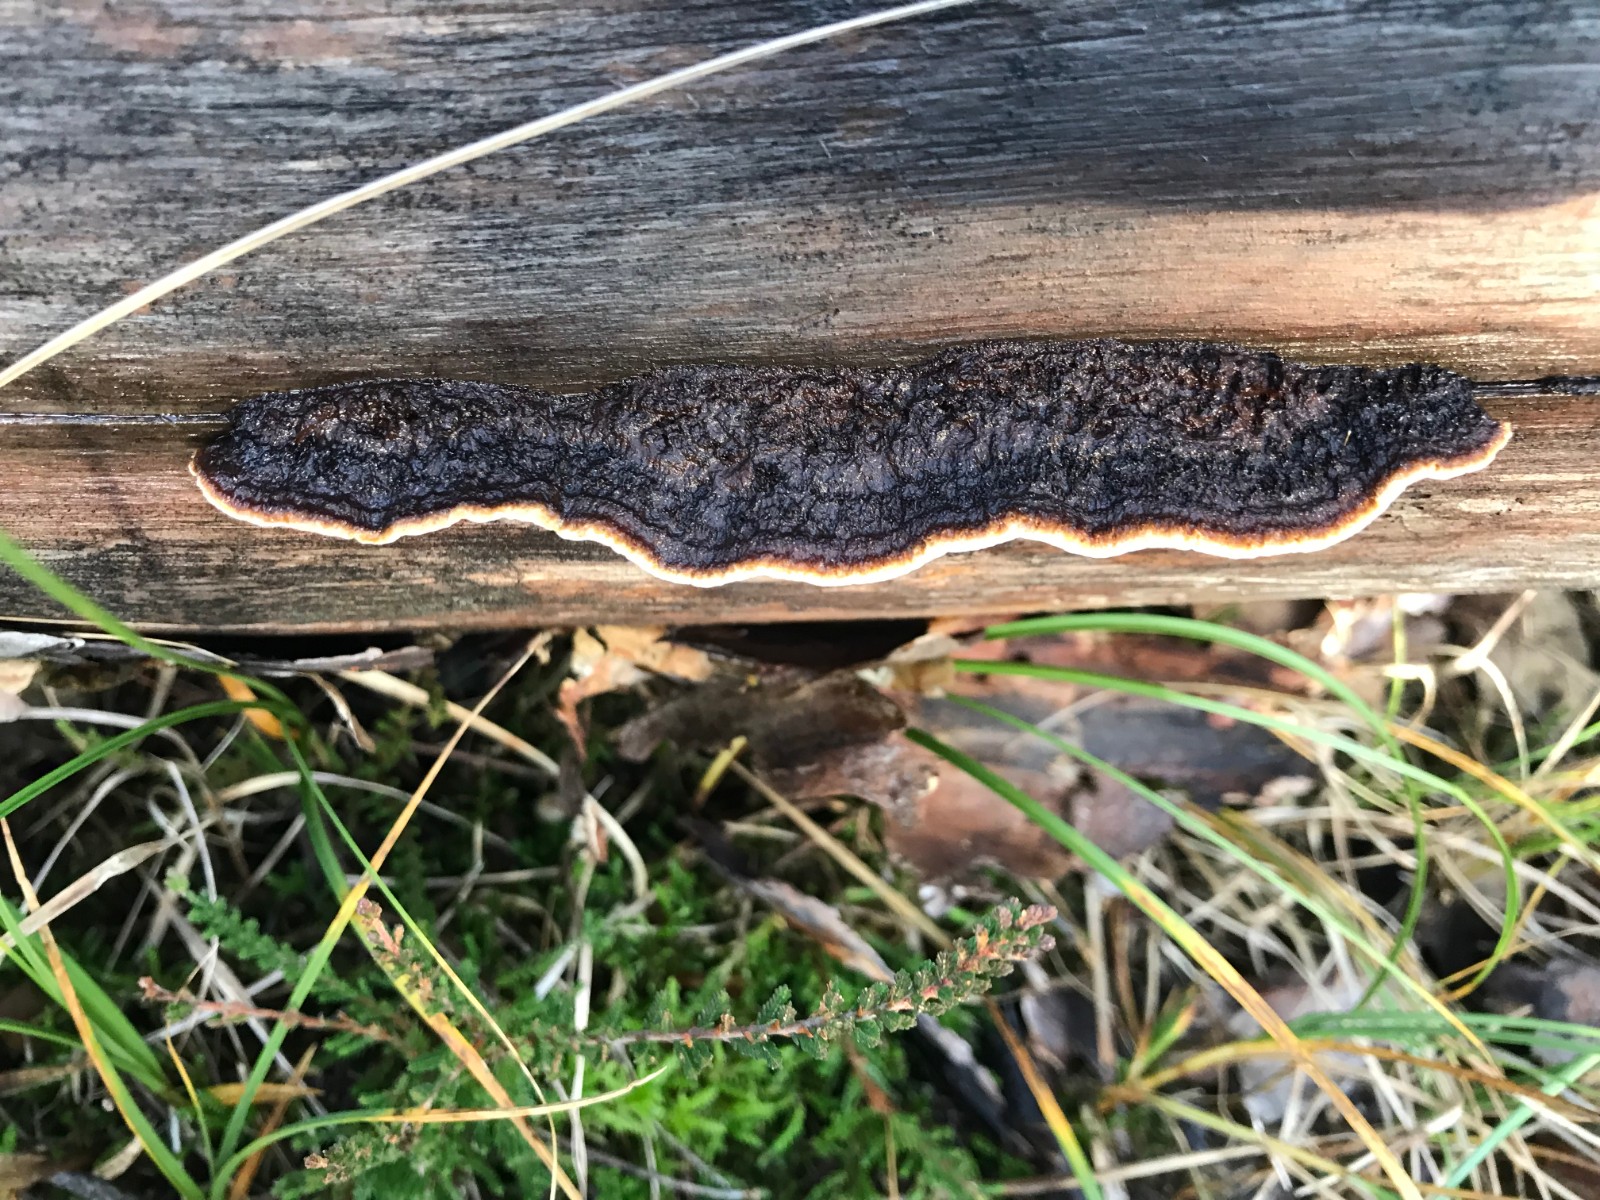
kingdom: Fungi
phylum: Basidiomycota
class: Agaricomycetes
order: Gloeophyllales
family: Gloeophyllaceae
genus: Gloeophyllum
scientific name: Gloeophyllum sepiarium
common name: fyrre-korkhat
